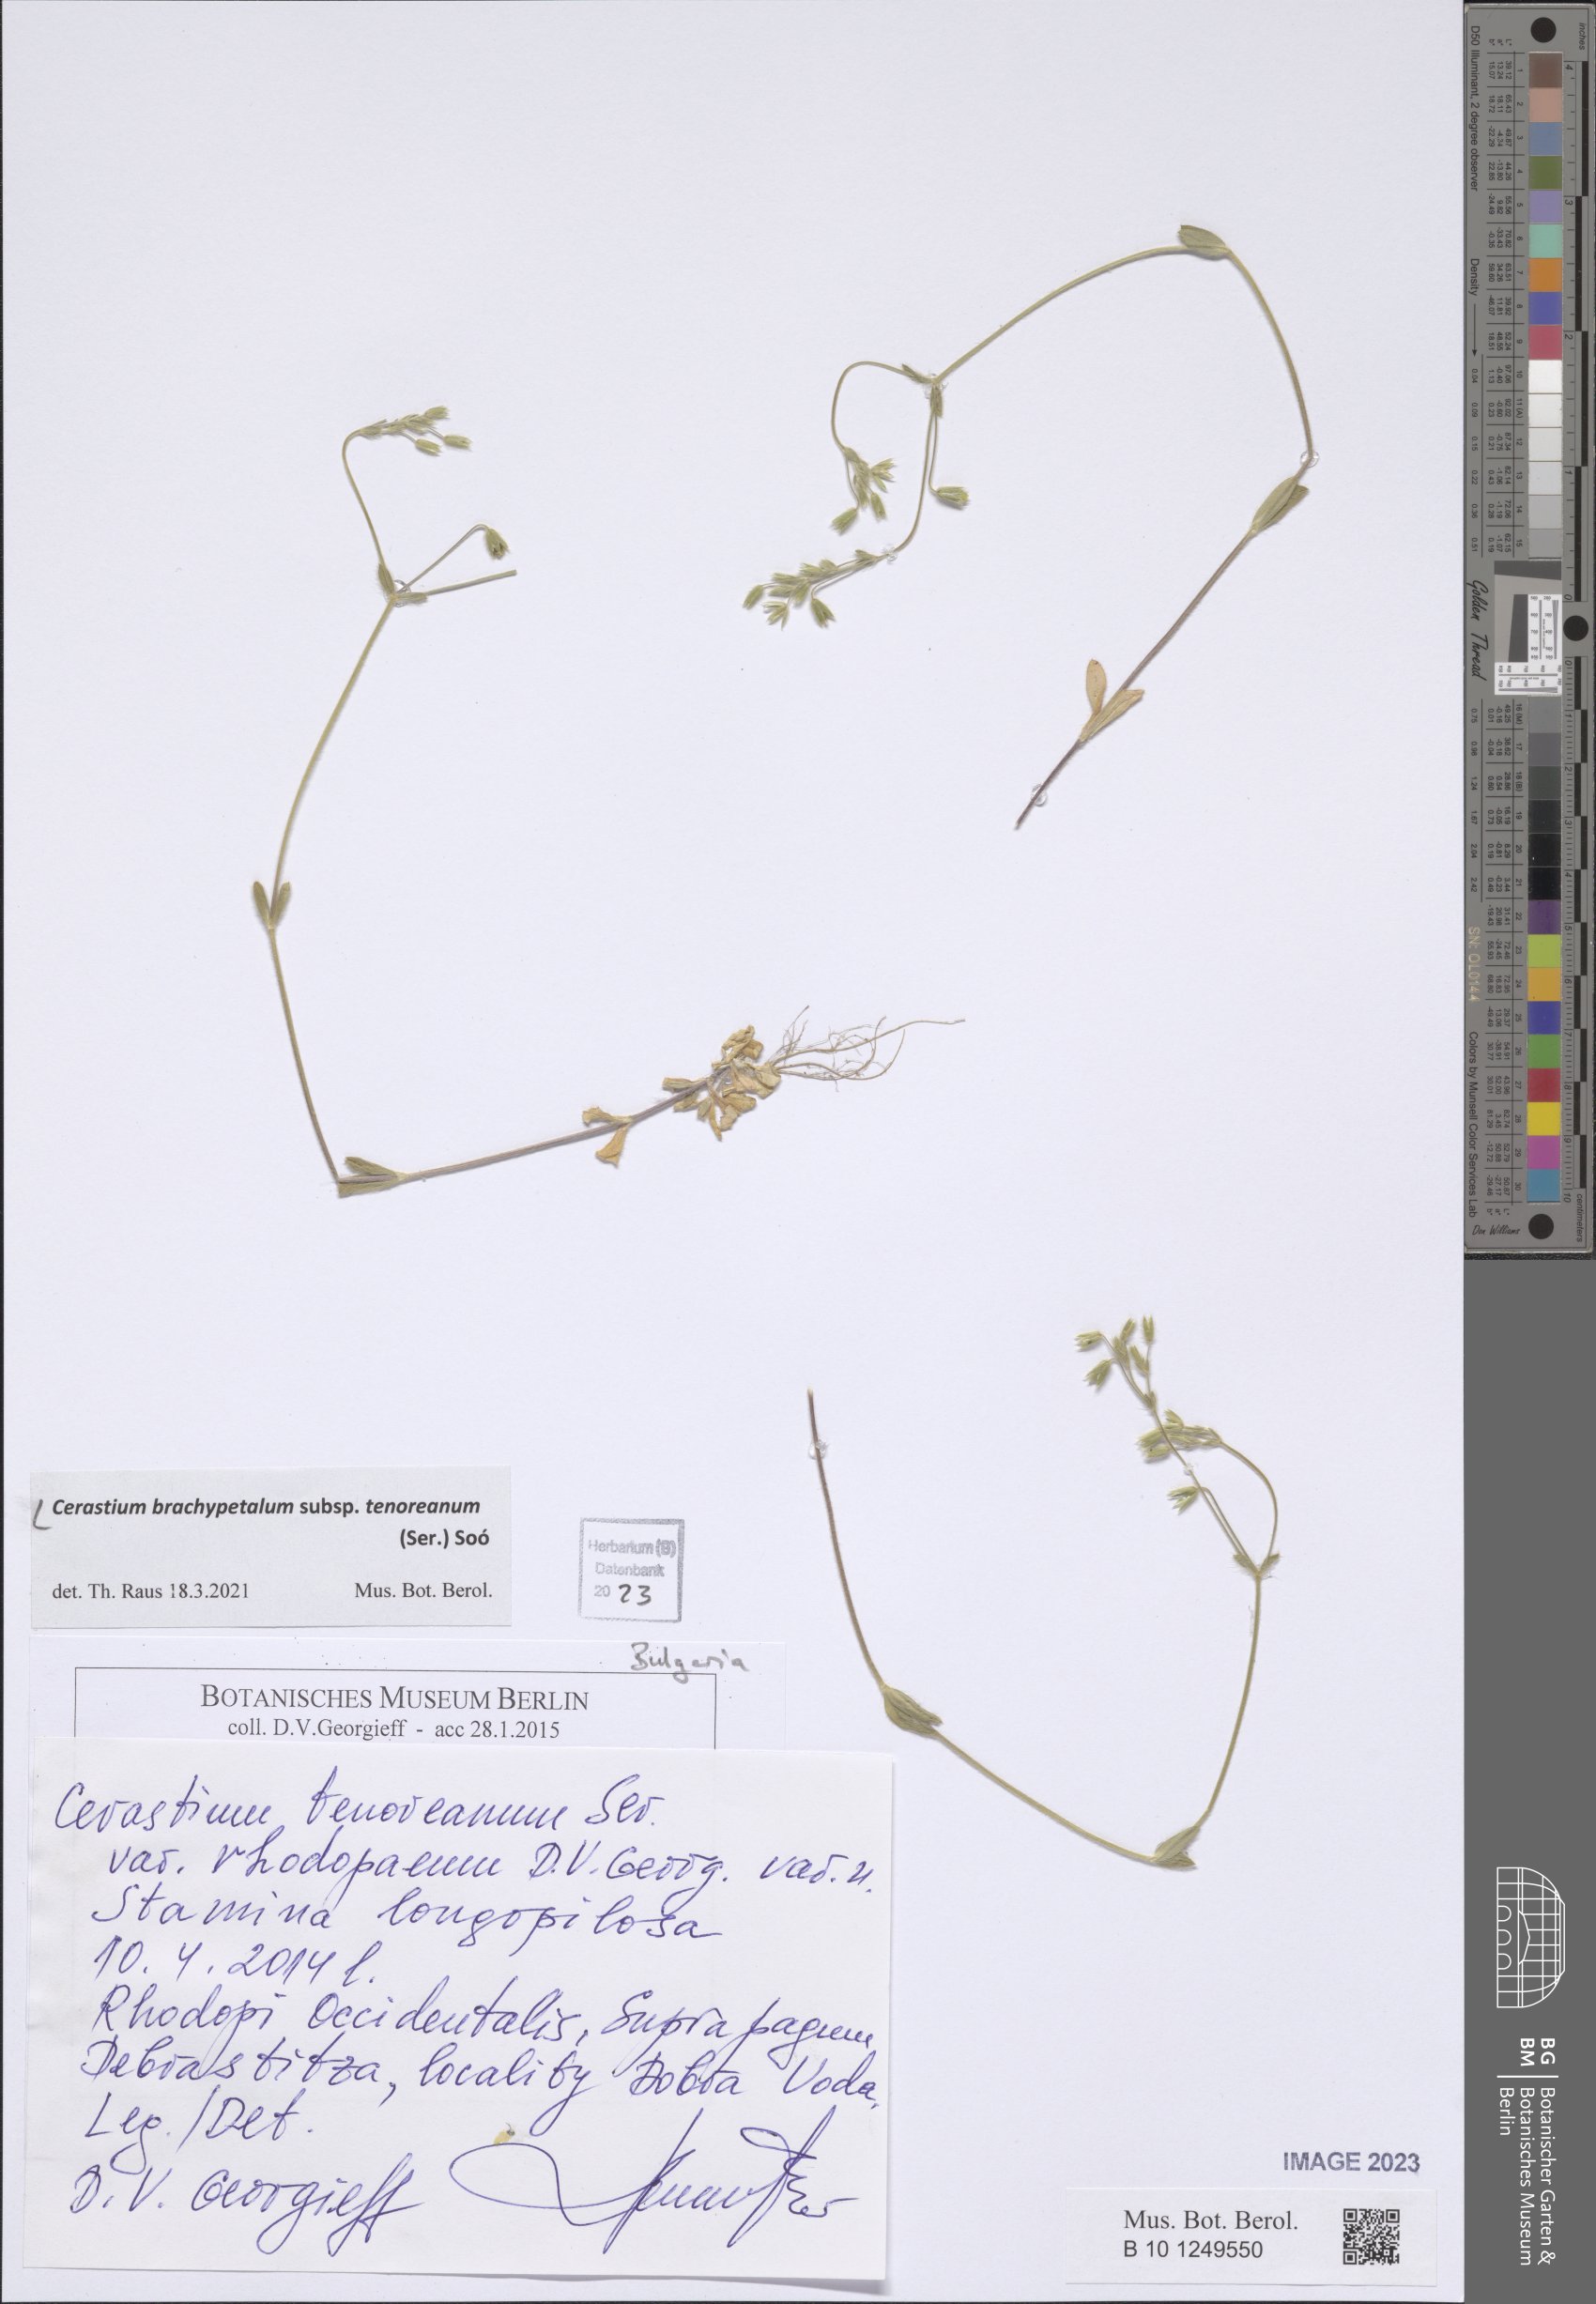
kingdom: Plantae
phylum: Tracheophyta
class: Magnoliopsida
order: Caryophyllales
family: Caryophyllaceae
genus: Cerastium
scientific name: Cerastium tenoreanum
